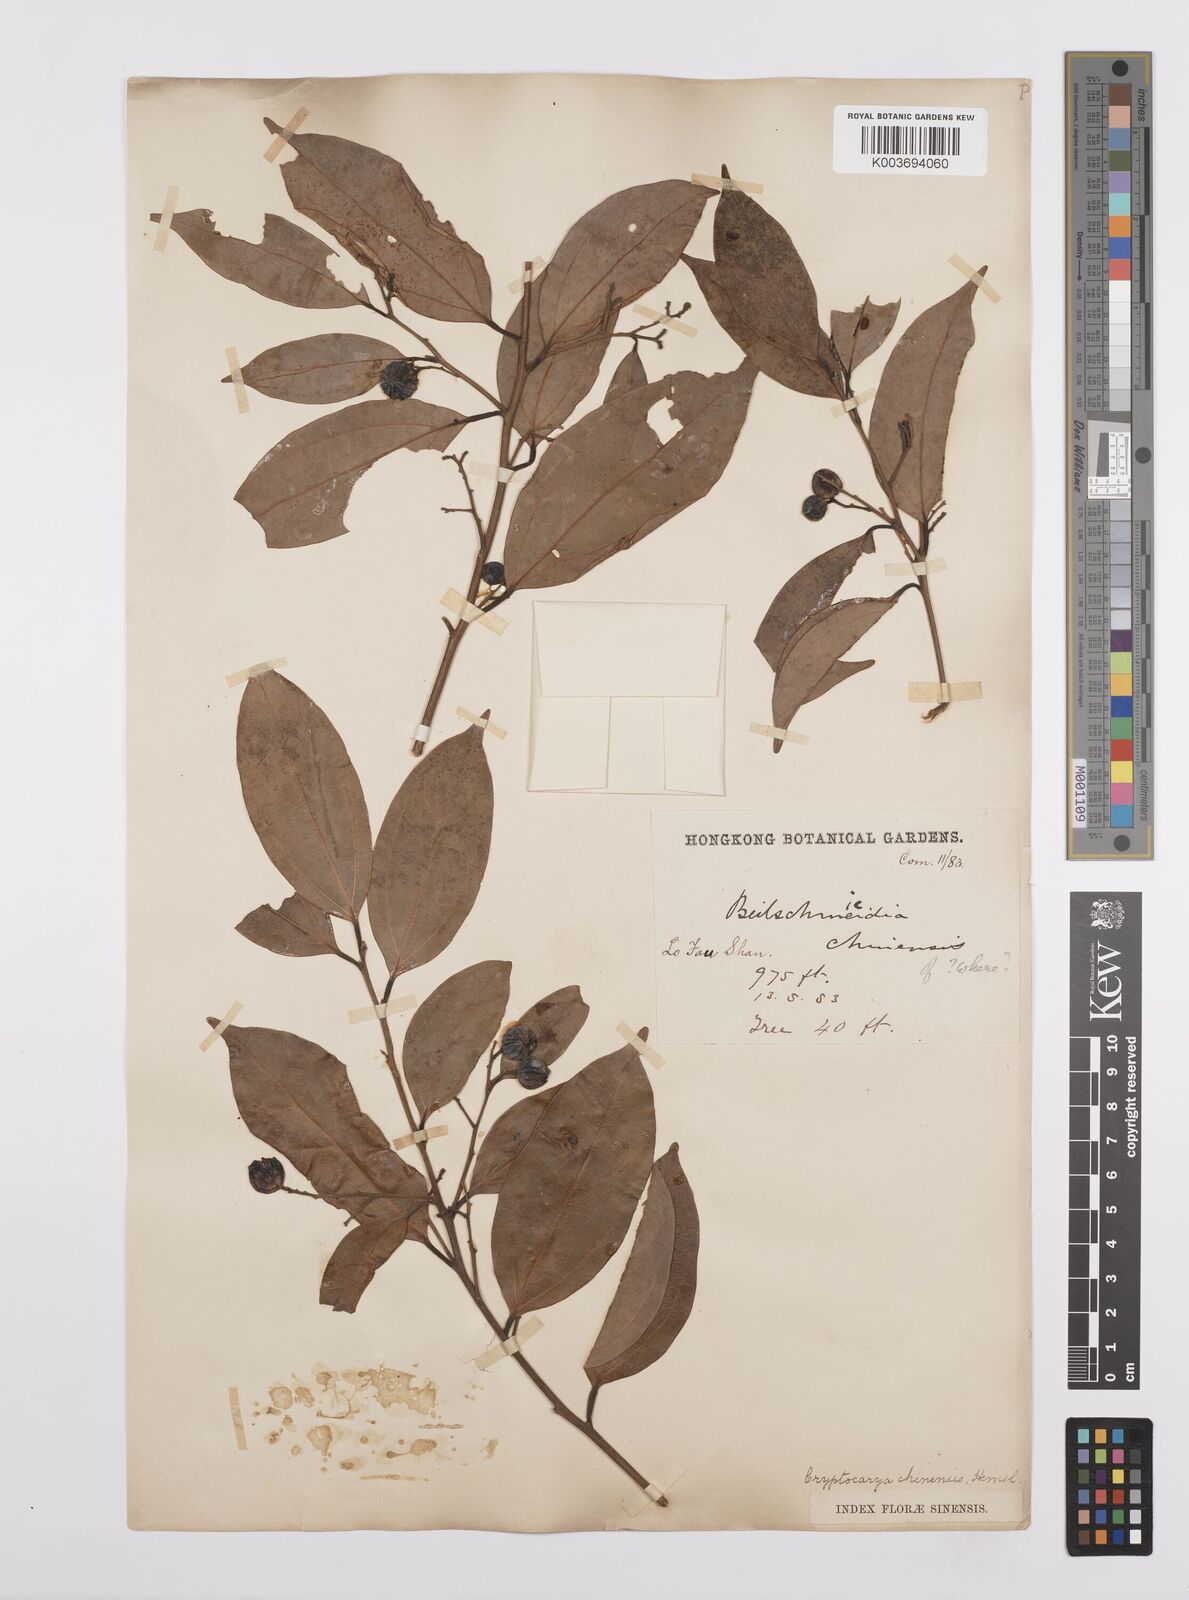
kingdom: Plantae
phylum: Tracheophyta
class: Magnoliopsida
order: Laurales
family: Lauraceae
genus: Cryptocarya
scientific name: Cryptocarya chinensis
